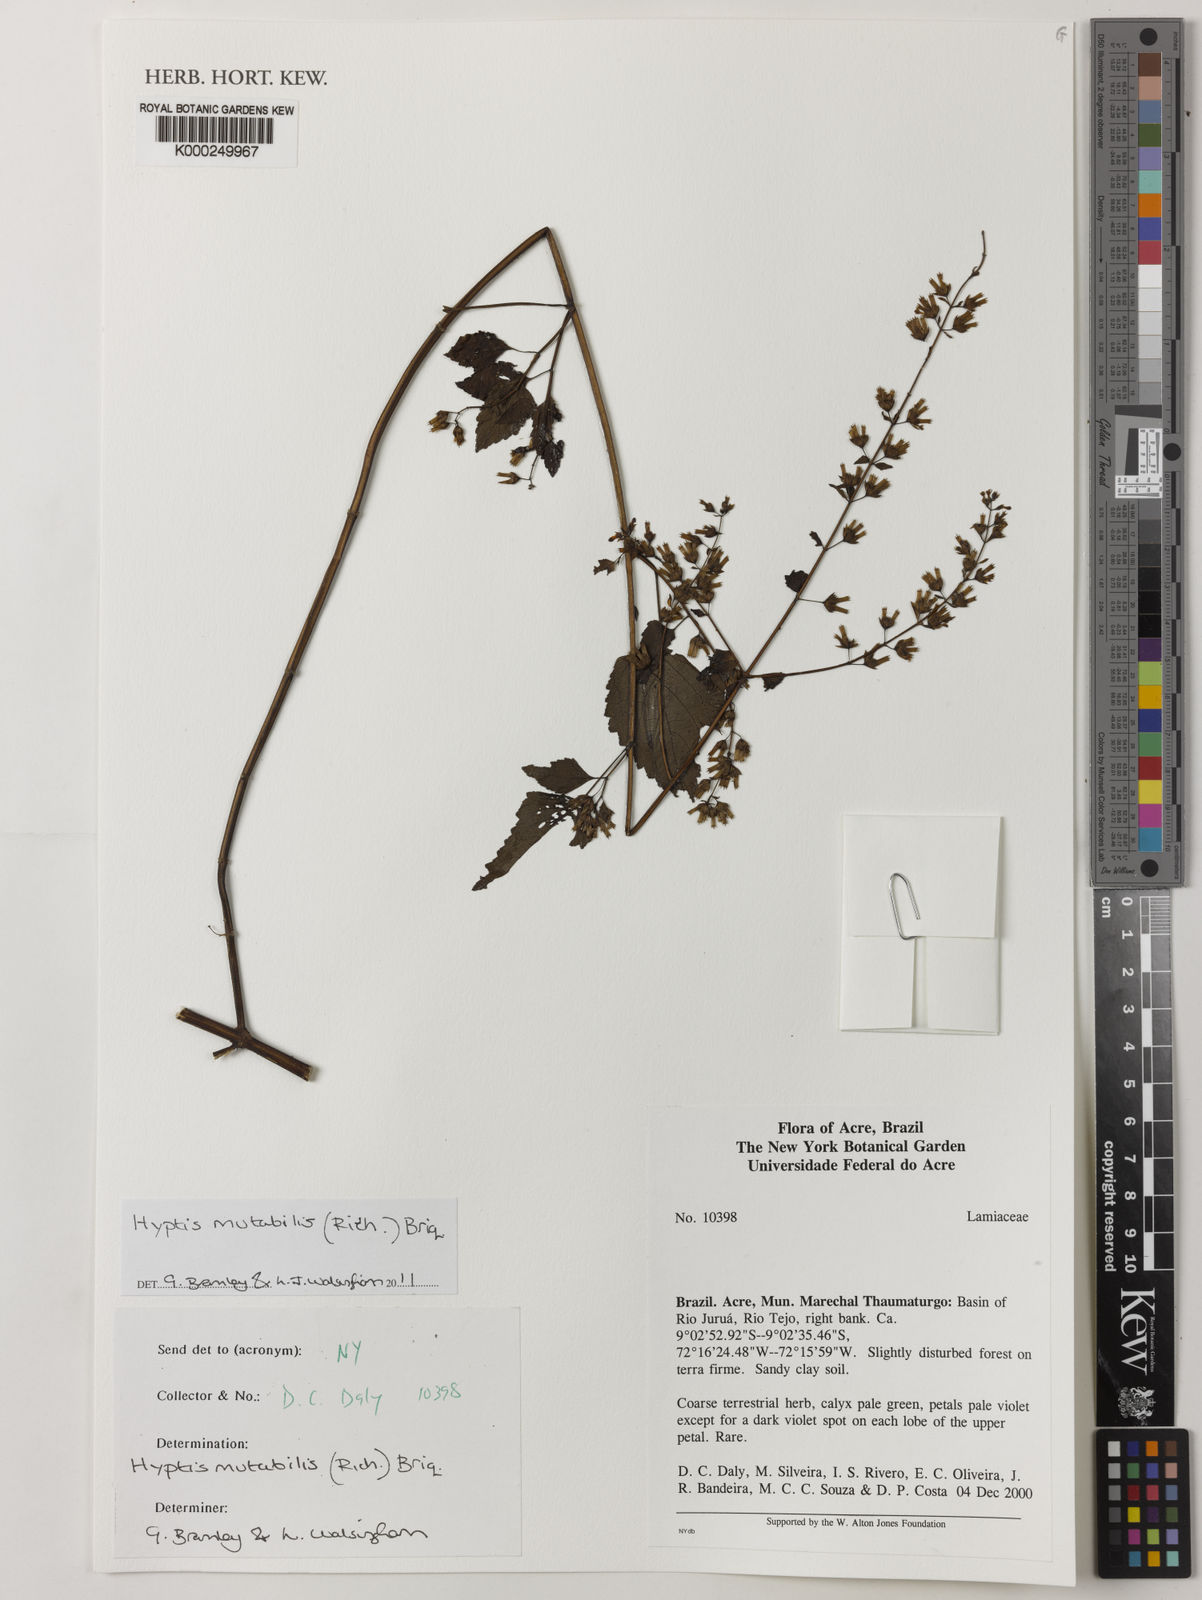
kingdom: Plantae
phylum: Tracheophyta
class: Magnoliopsida
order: Lamiales
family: Lamiaceae
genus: Cantinoa
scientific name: Cantinoa mutabilis
